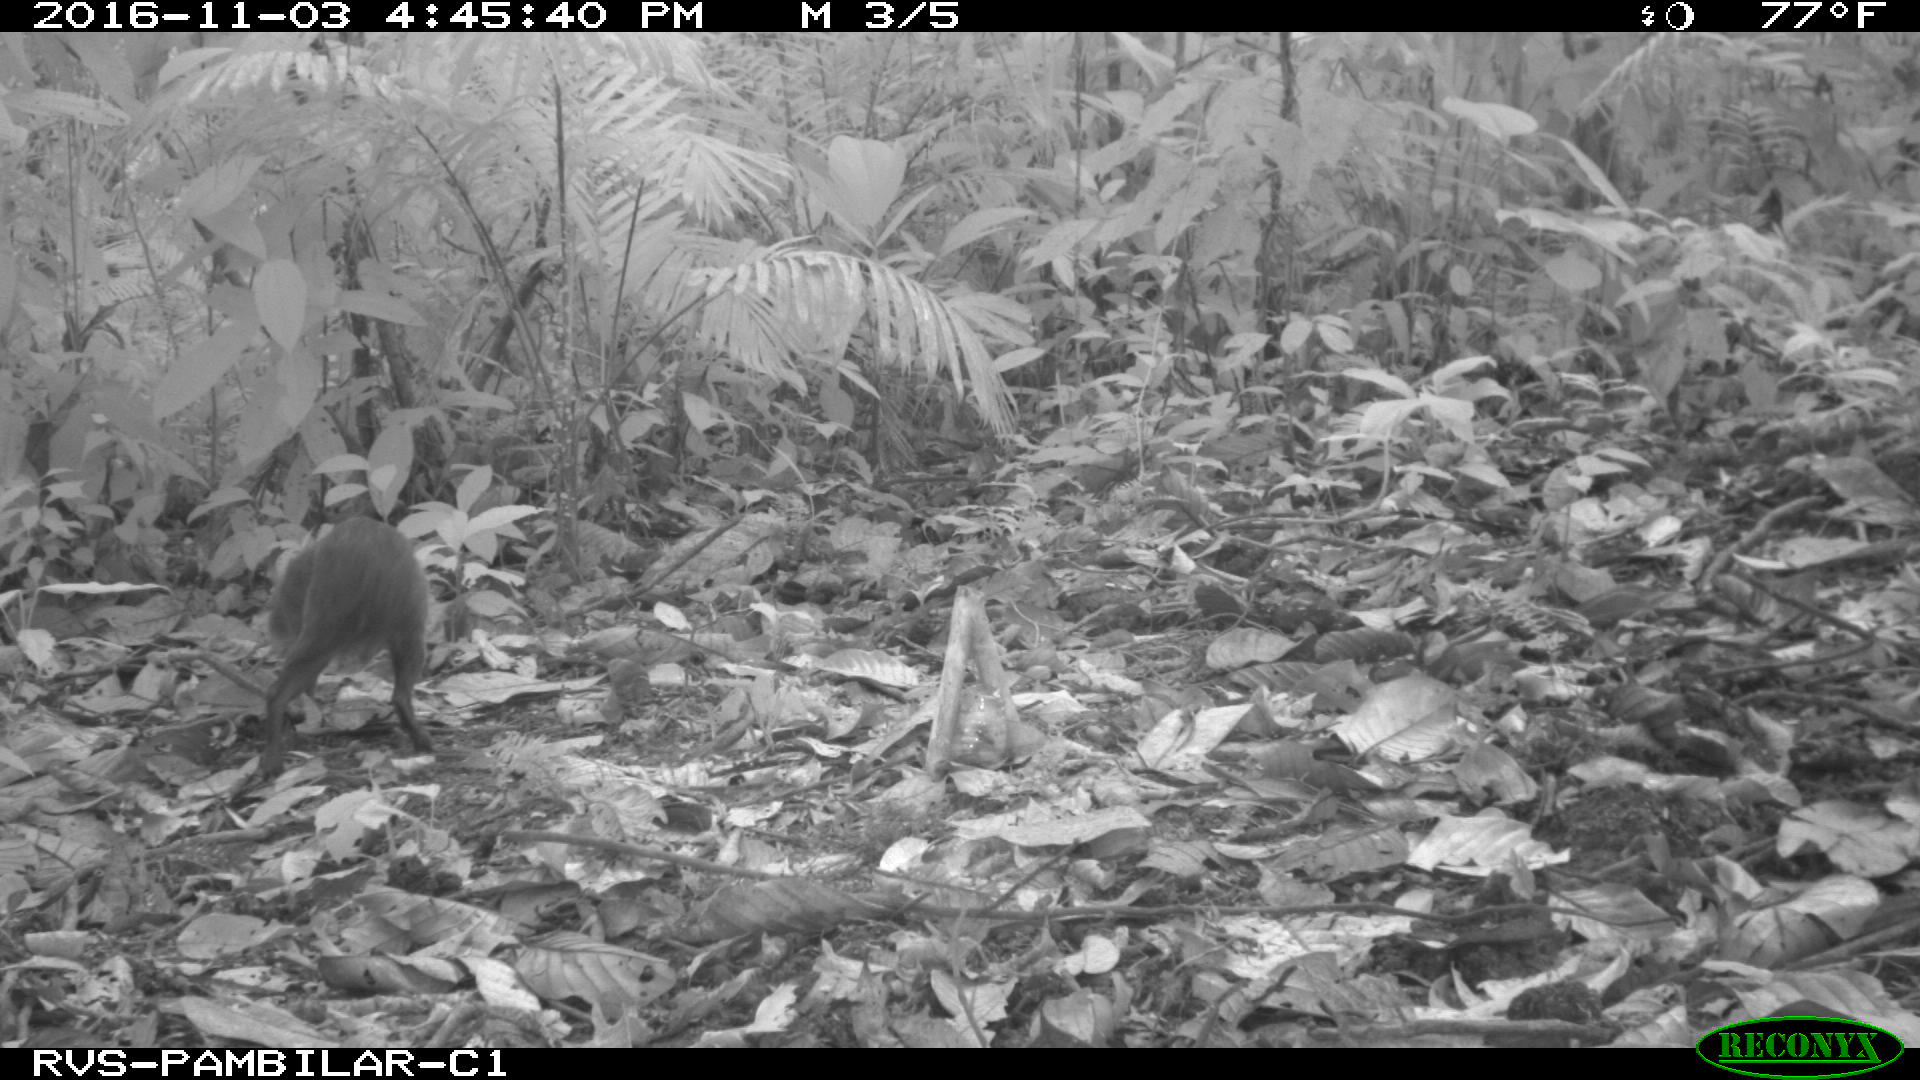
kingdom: Animalia
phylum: Chordata
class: Mammalia
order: Rodentia
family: Dasyproctidae
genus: Dasyprocta
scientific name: Dasyprocta punctata
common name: Central american agouti
